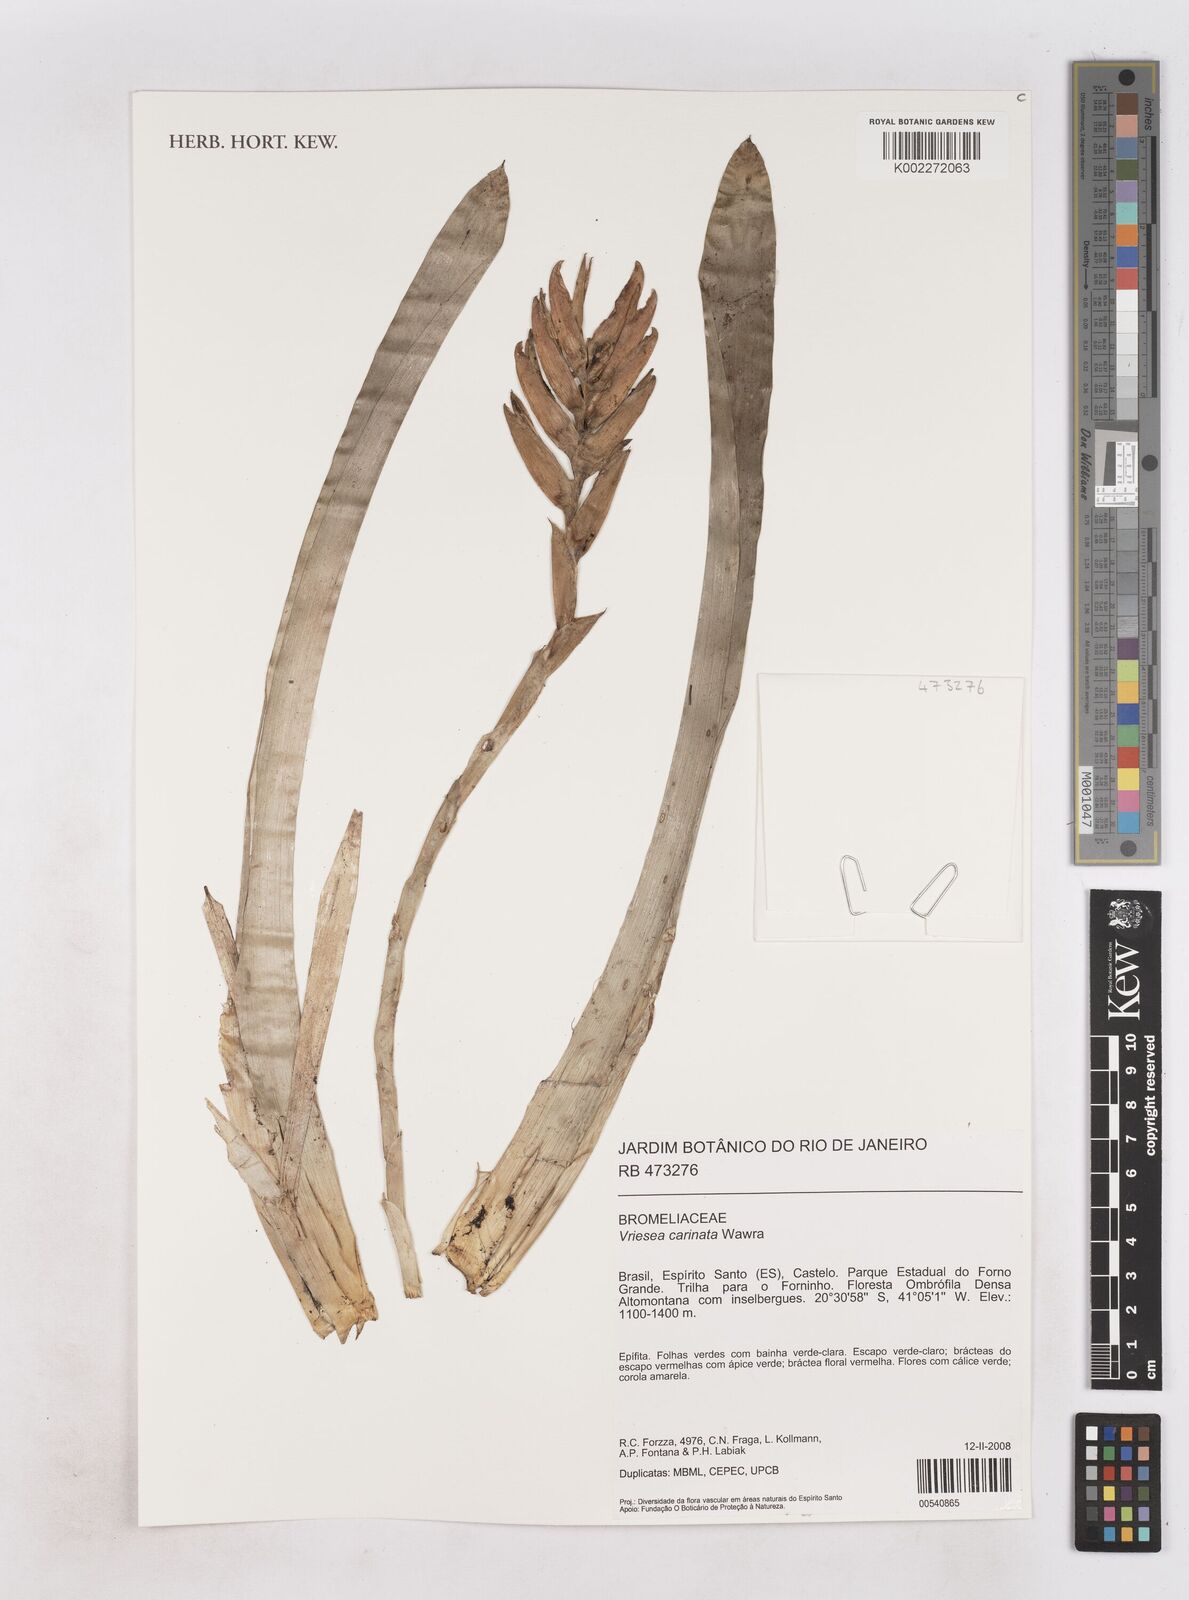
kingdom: Plantae
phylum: Tracheophyta
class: Liliopsida
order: Poales
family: Bromeliaceae
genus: Vriesea
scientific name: Vriesea carinata
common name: Lobster-claws
